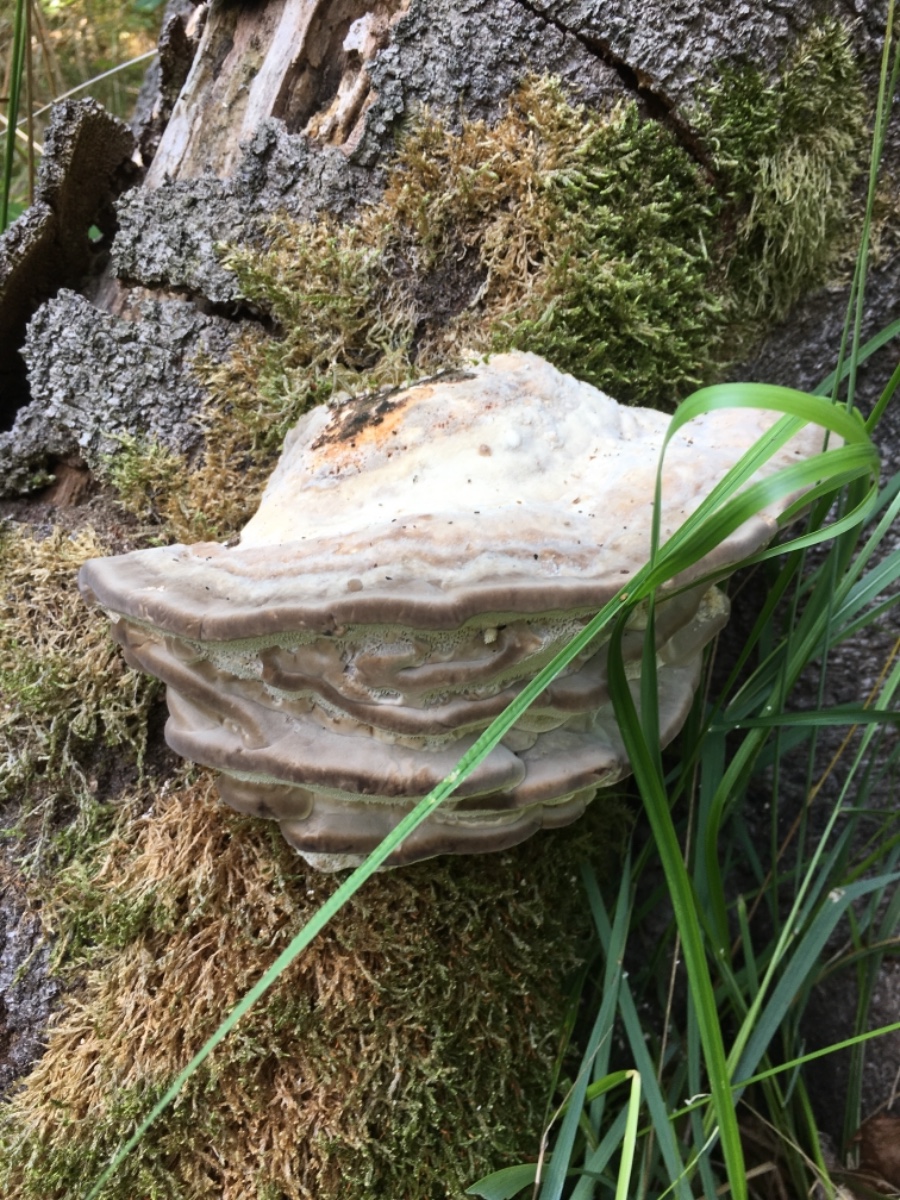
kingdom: Fungi
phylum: Basidiomycota
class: Agaricomycetes
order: Polyporales
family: Polyporaceae
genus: Trametes
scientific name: Trametes gibbosa
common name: puklet læderporesvamp
